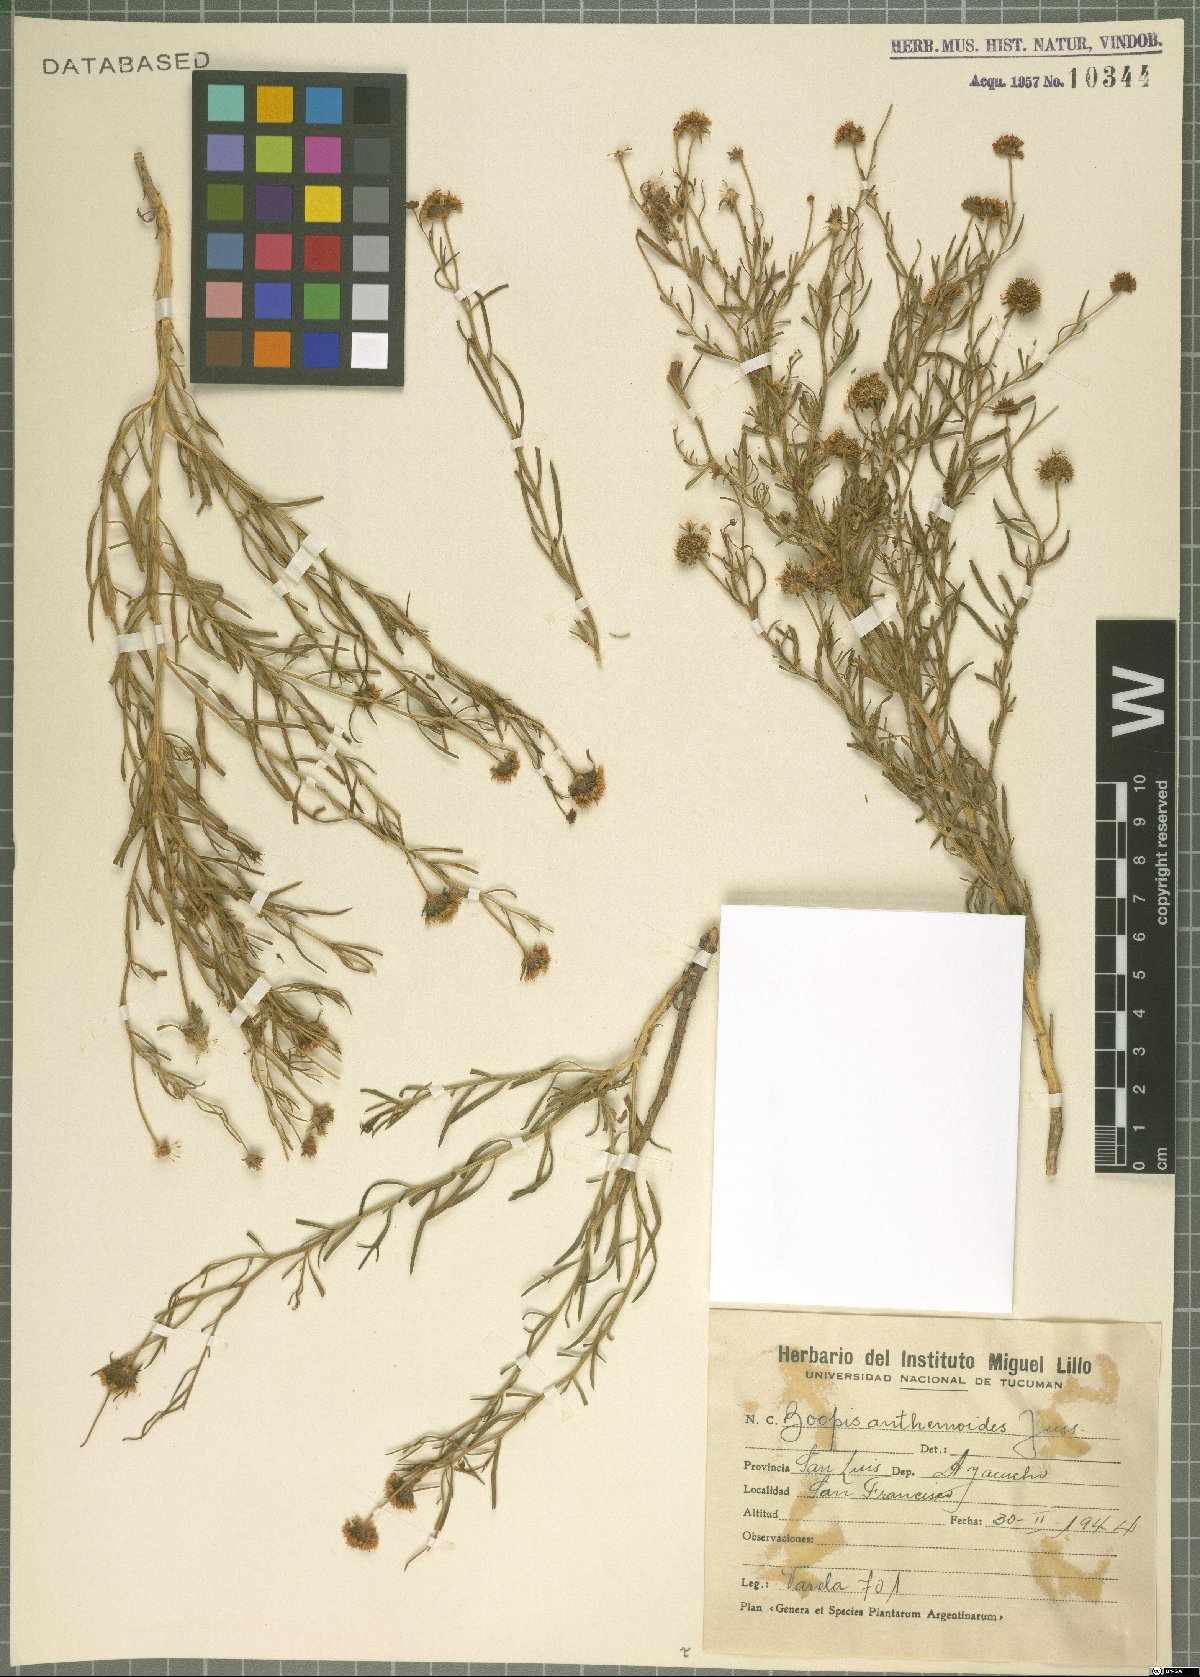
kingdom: Plantae
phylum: Tracheophyta
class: Magnoliopsida
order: Asterales
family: Calyceraceae
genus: Boopis
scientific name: Boopis anthemoides
